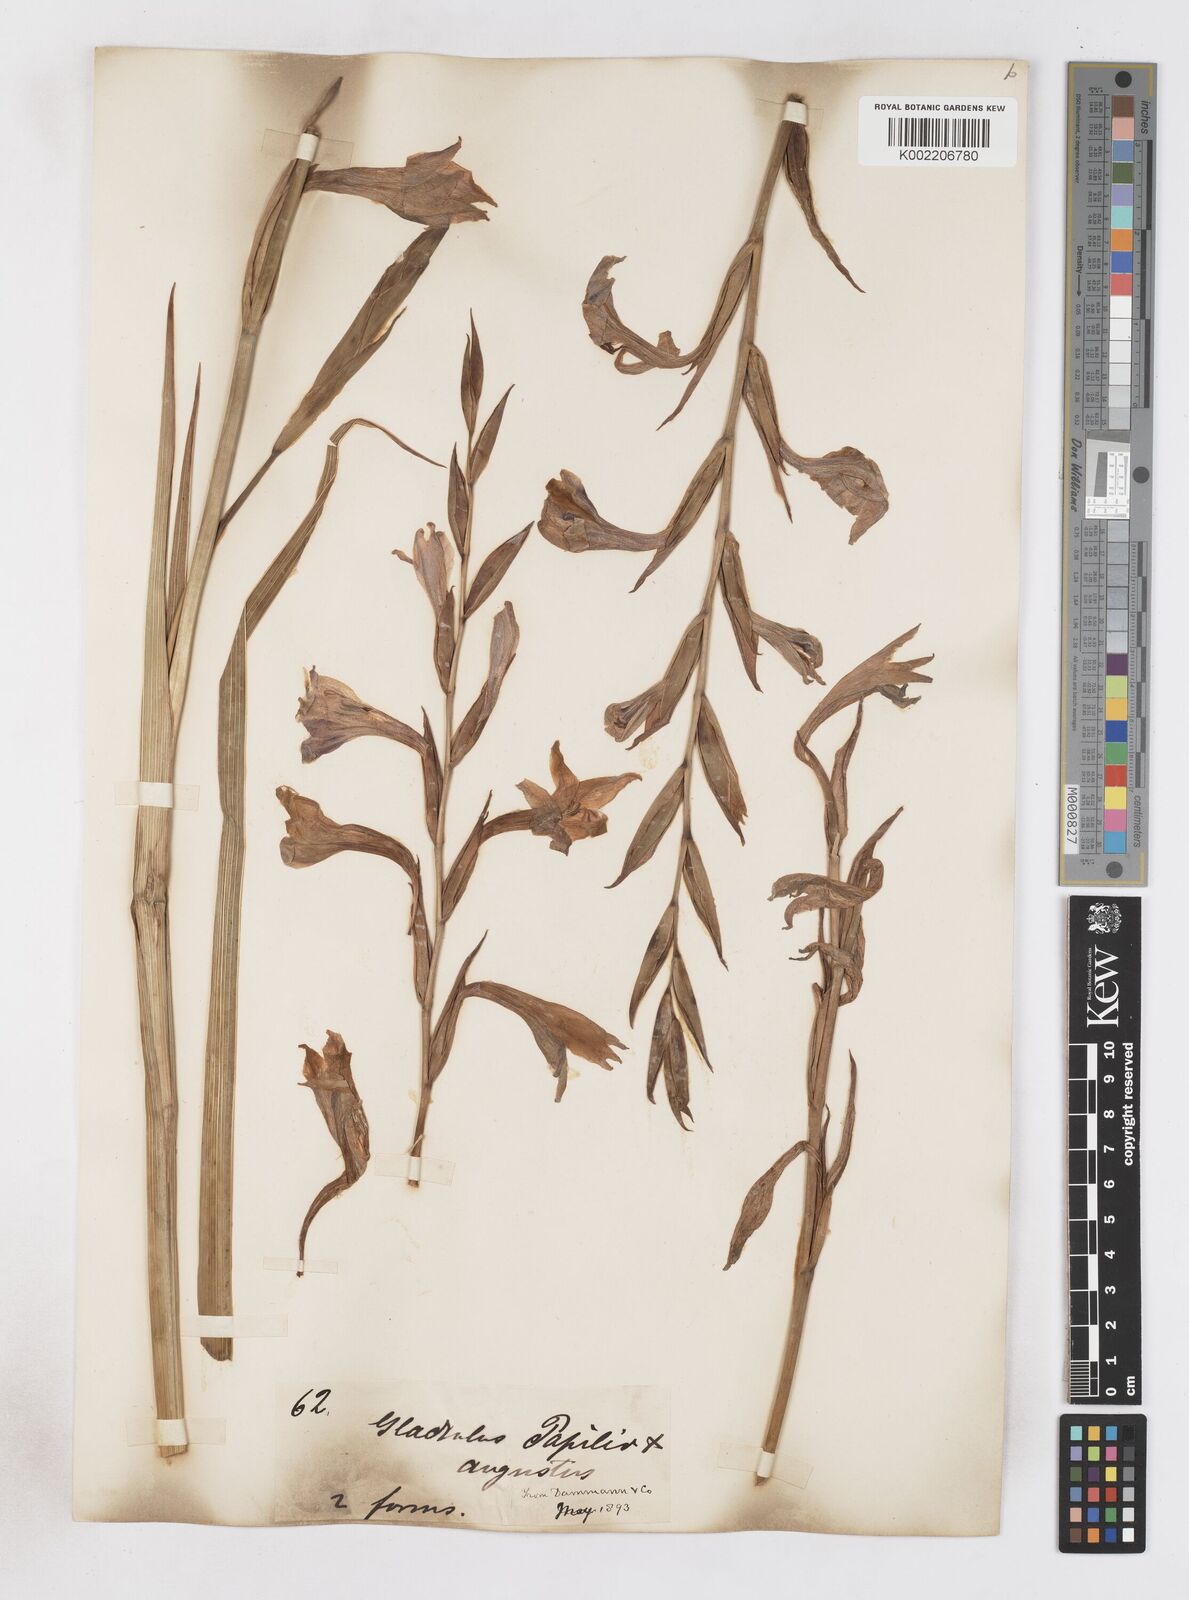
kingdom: Plantae
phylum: Tracheophyta
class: Liliopsida
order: Asparagales
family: Iridaceae
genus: Gladiolus
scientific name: Gladiolus papilio
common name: Goldblotch gladiolus
